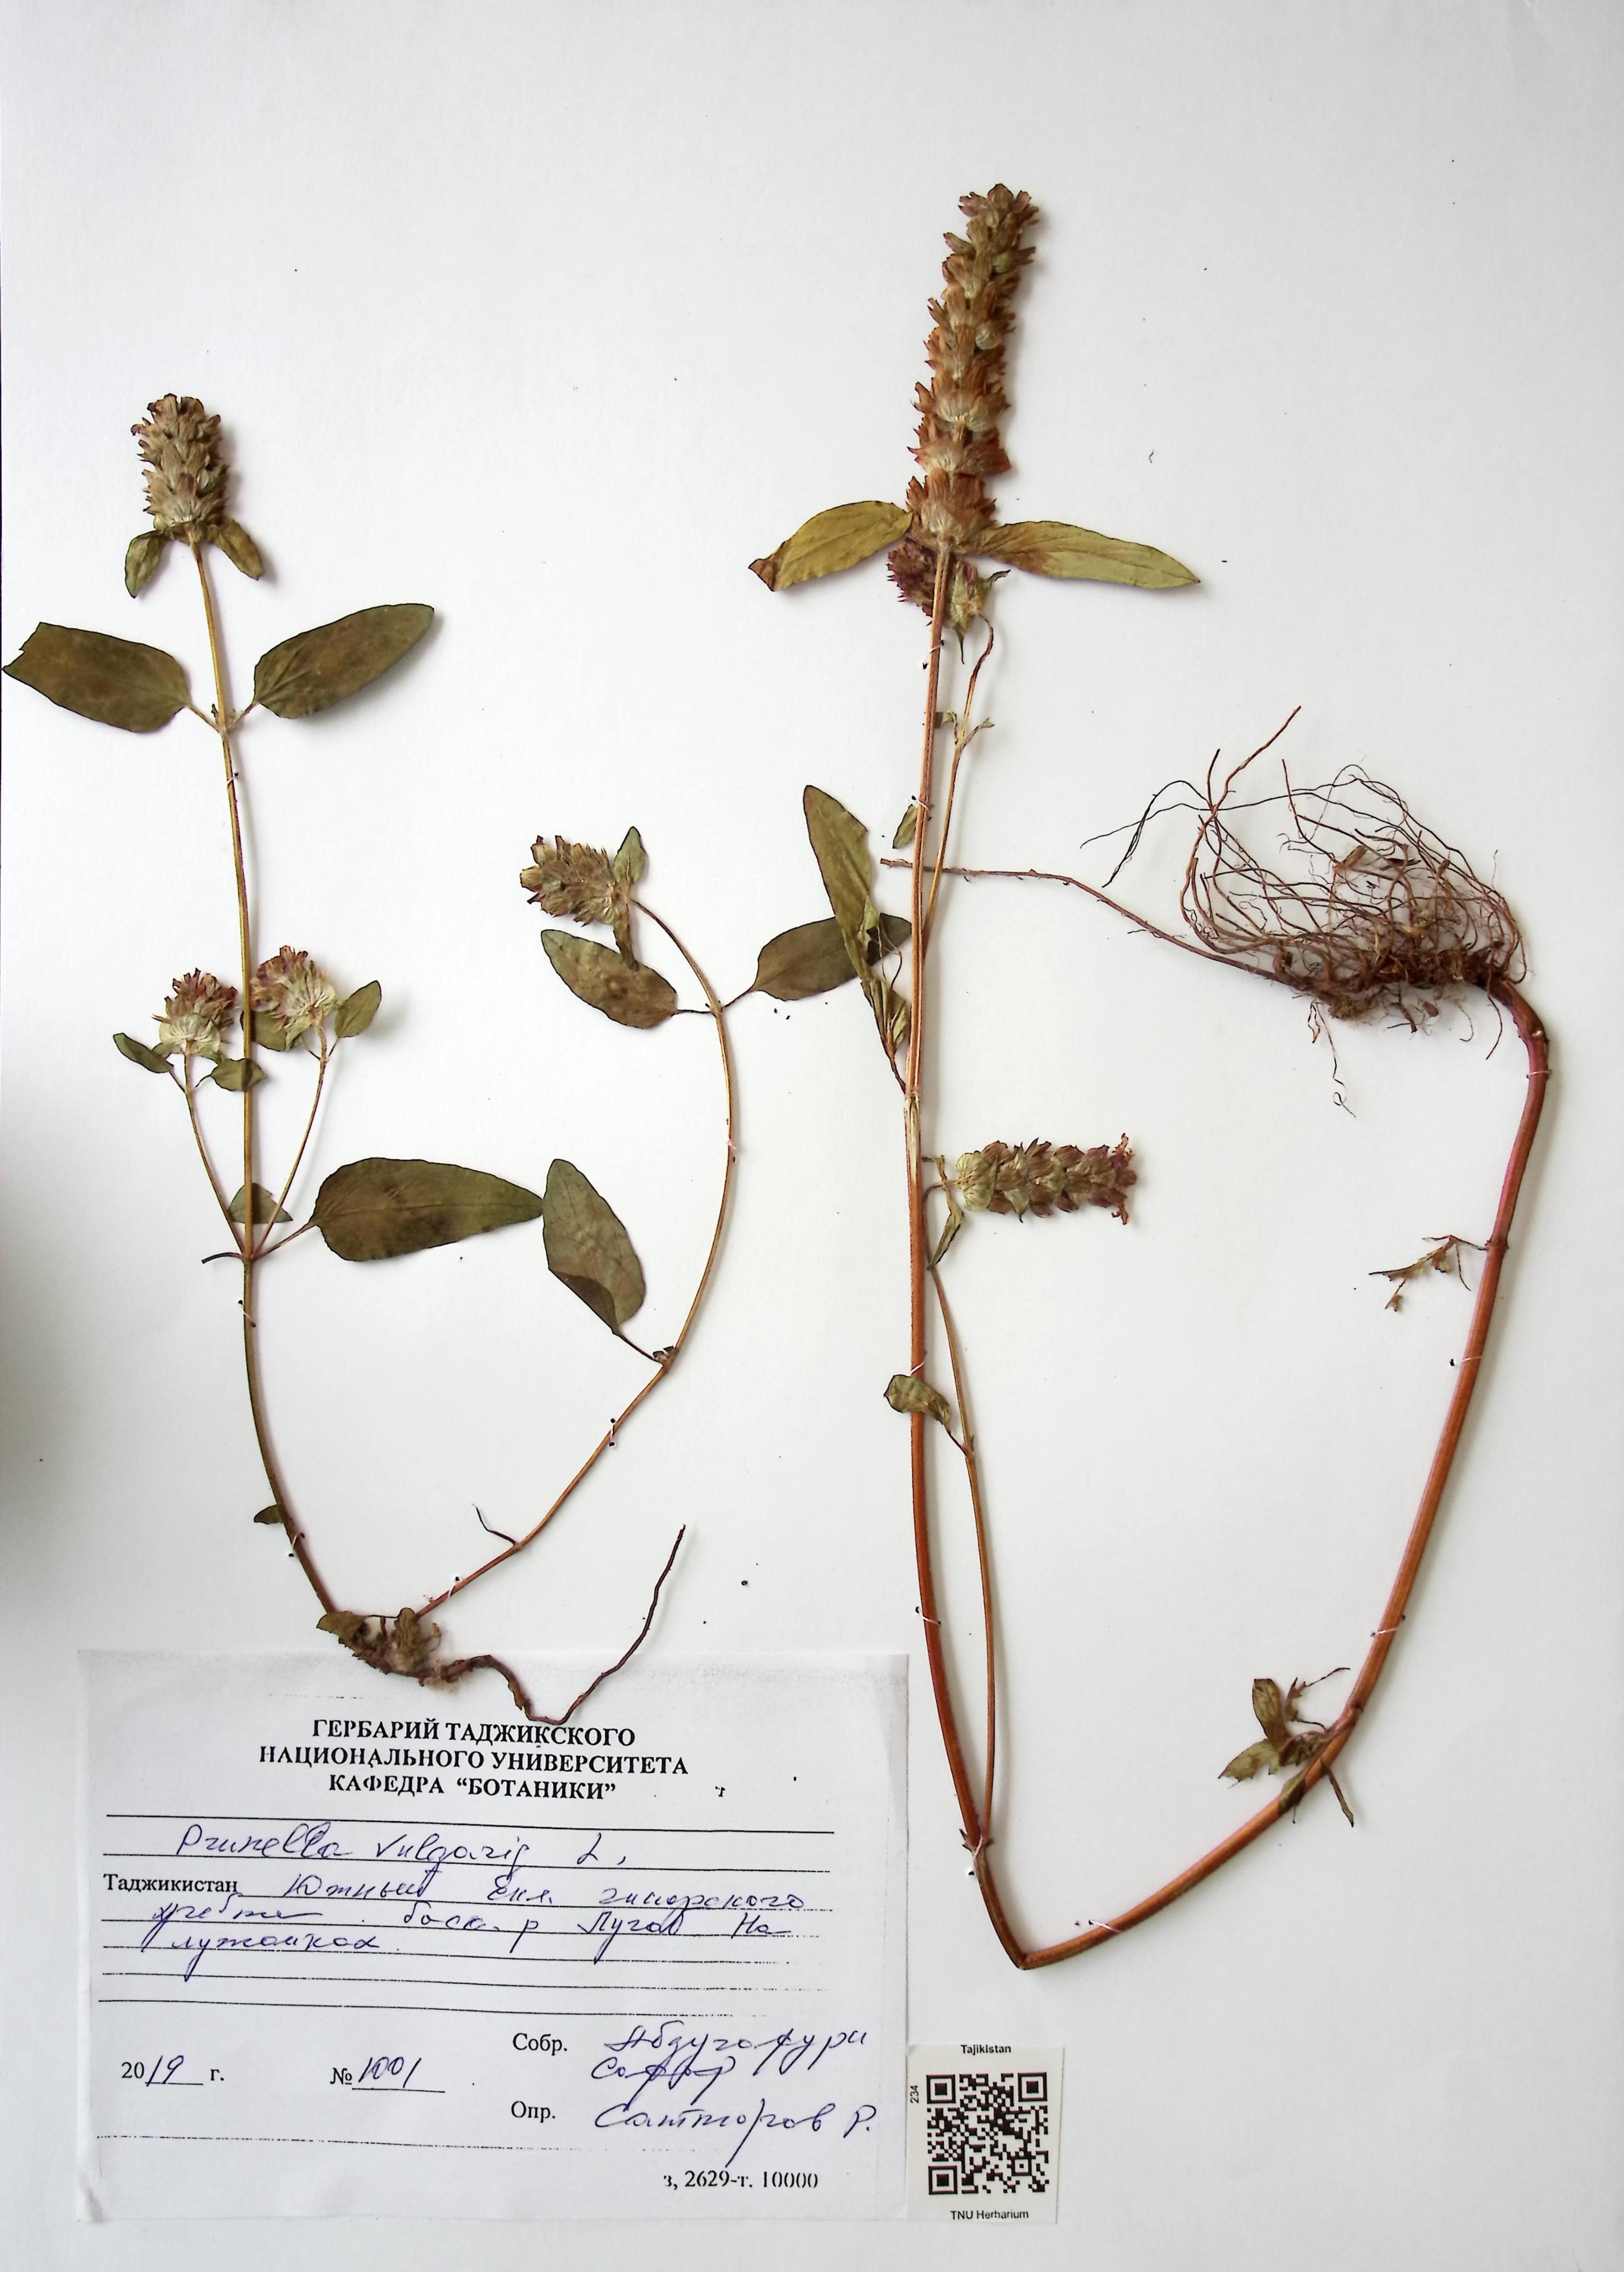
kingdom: Plantae
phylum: Tracheophyta
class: Magnoliopsida
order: Lamiales
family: Lamiaceae
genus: Prunella
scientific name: Prunella vulgaris
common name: Heal-all
